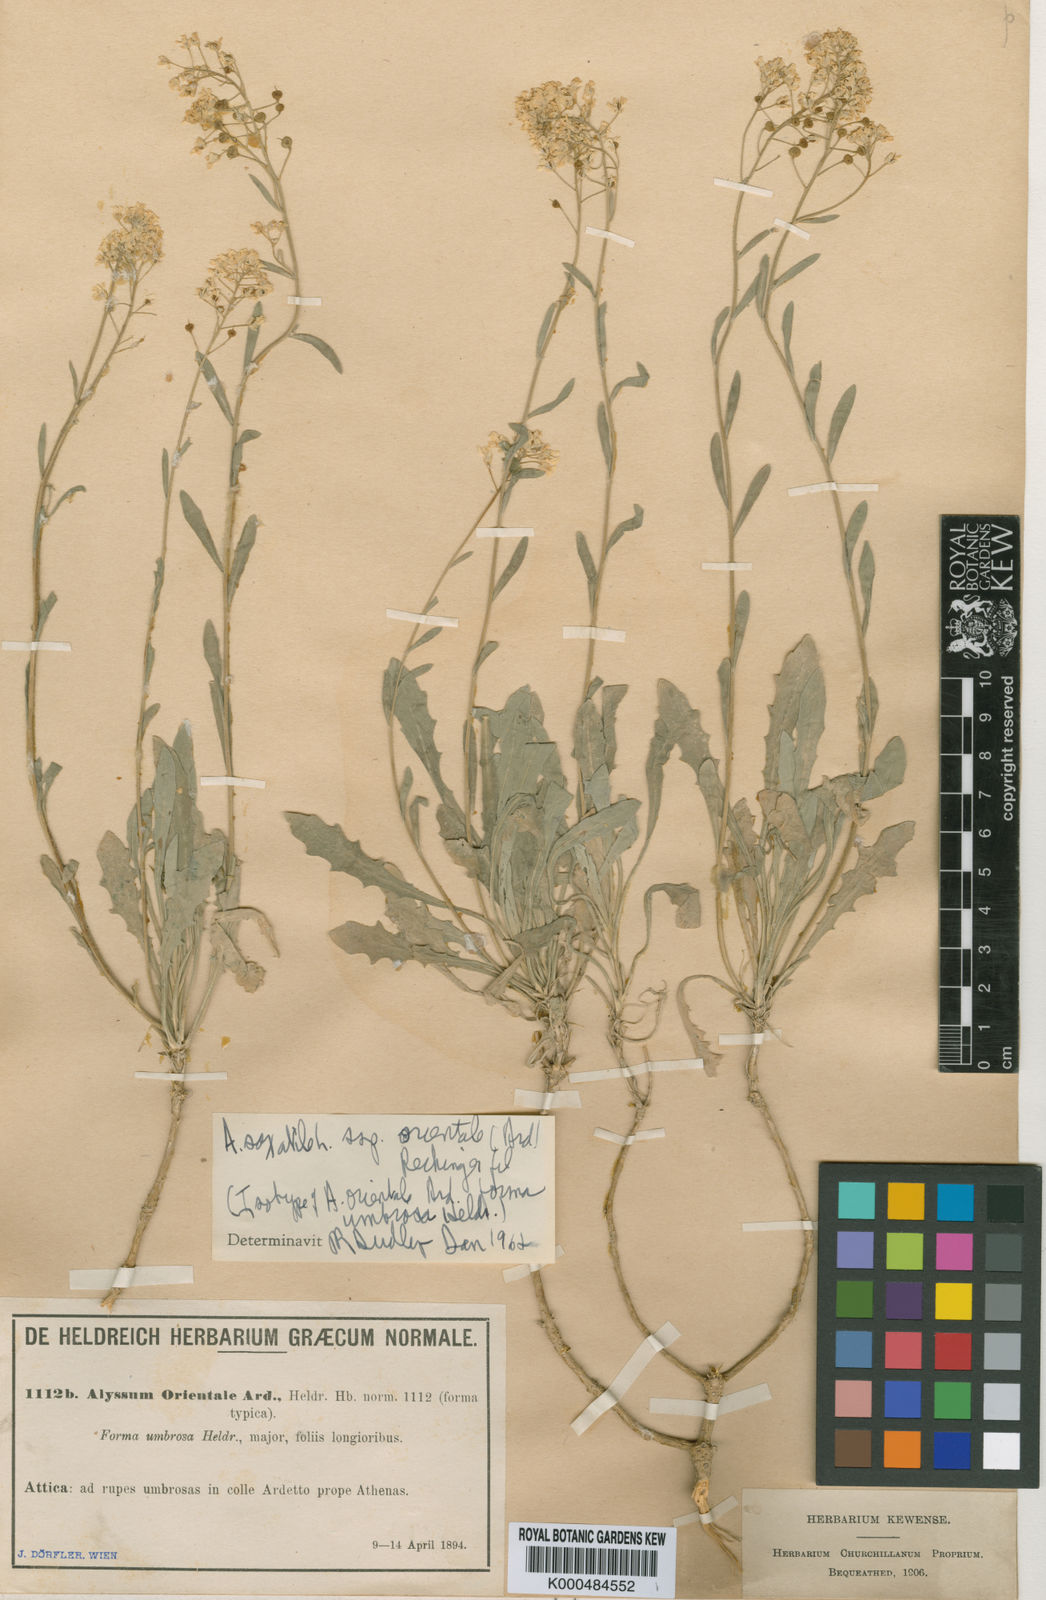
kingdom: Plantae
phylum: Tracheophyta
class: Magnoliopsida
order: Brassicales
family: Brassicaceae
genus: Aurinia
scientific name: Aurinia saxatilis
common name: Golden-tuft alyssum
